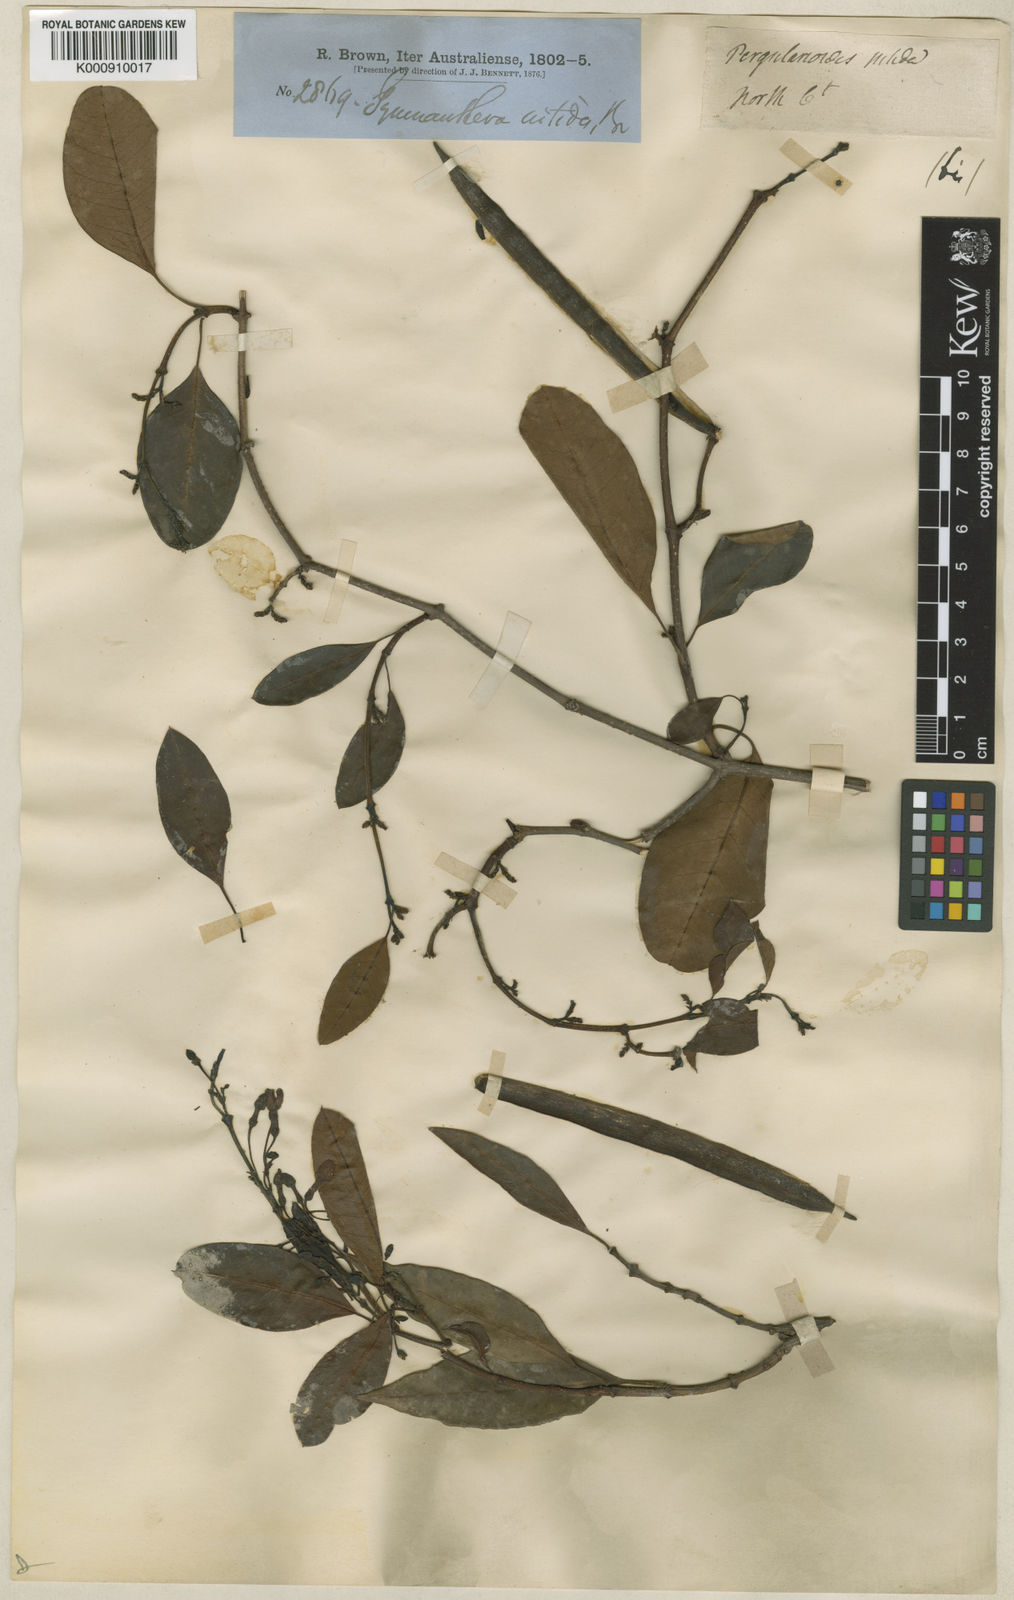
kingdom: Plantae
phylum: Tracheophyta
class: Magnoliopsida
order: Gentianales
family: Apocynaceae
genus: Gymnanthera
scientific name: Gymnanthera oblonga
